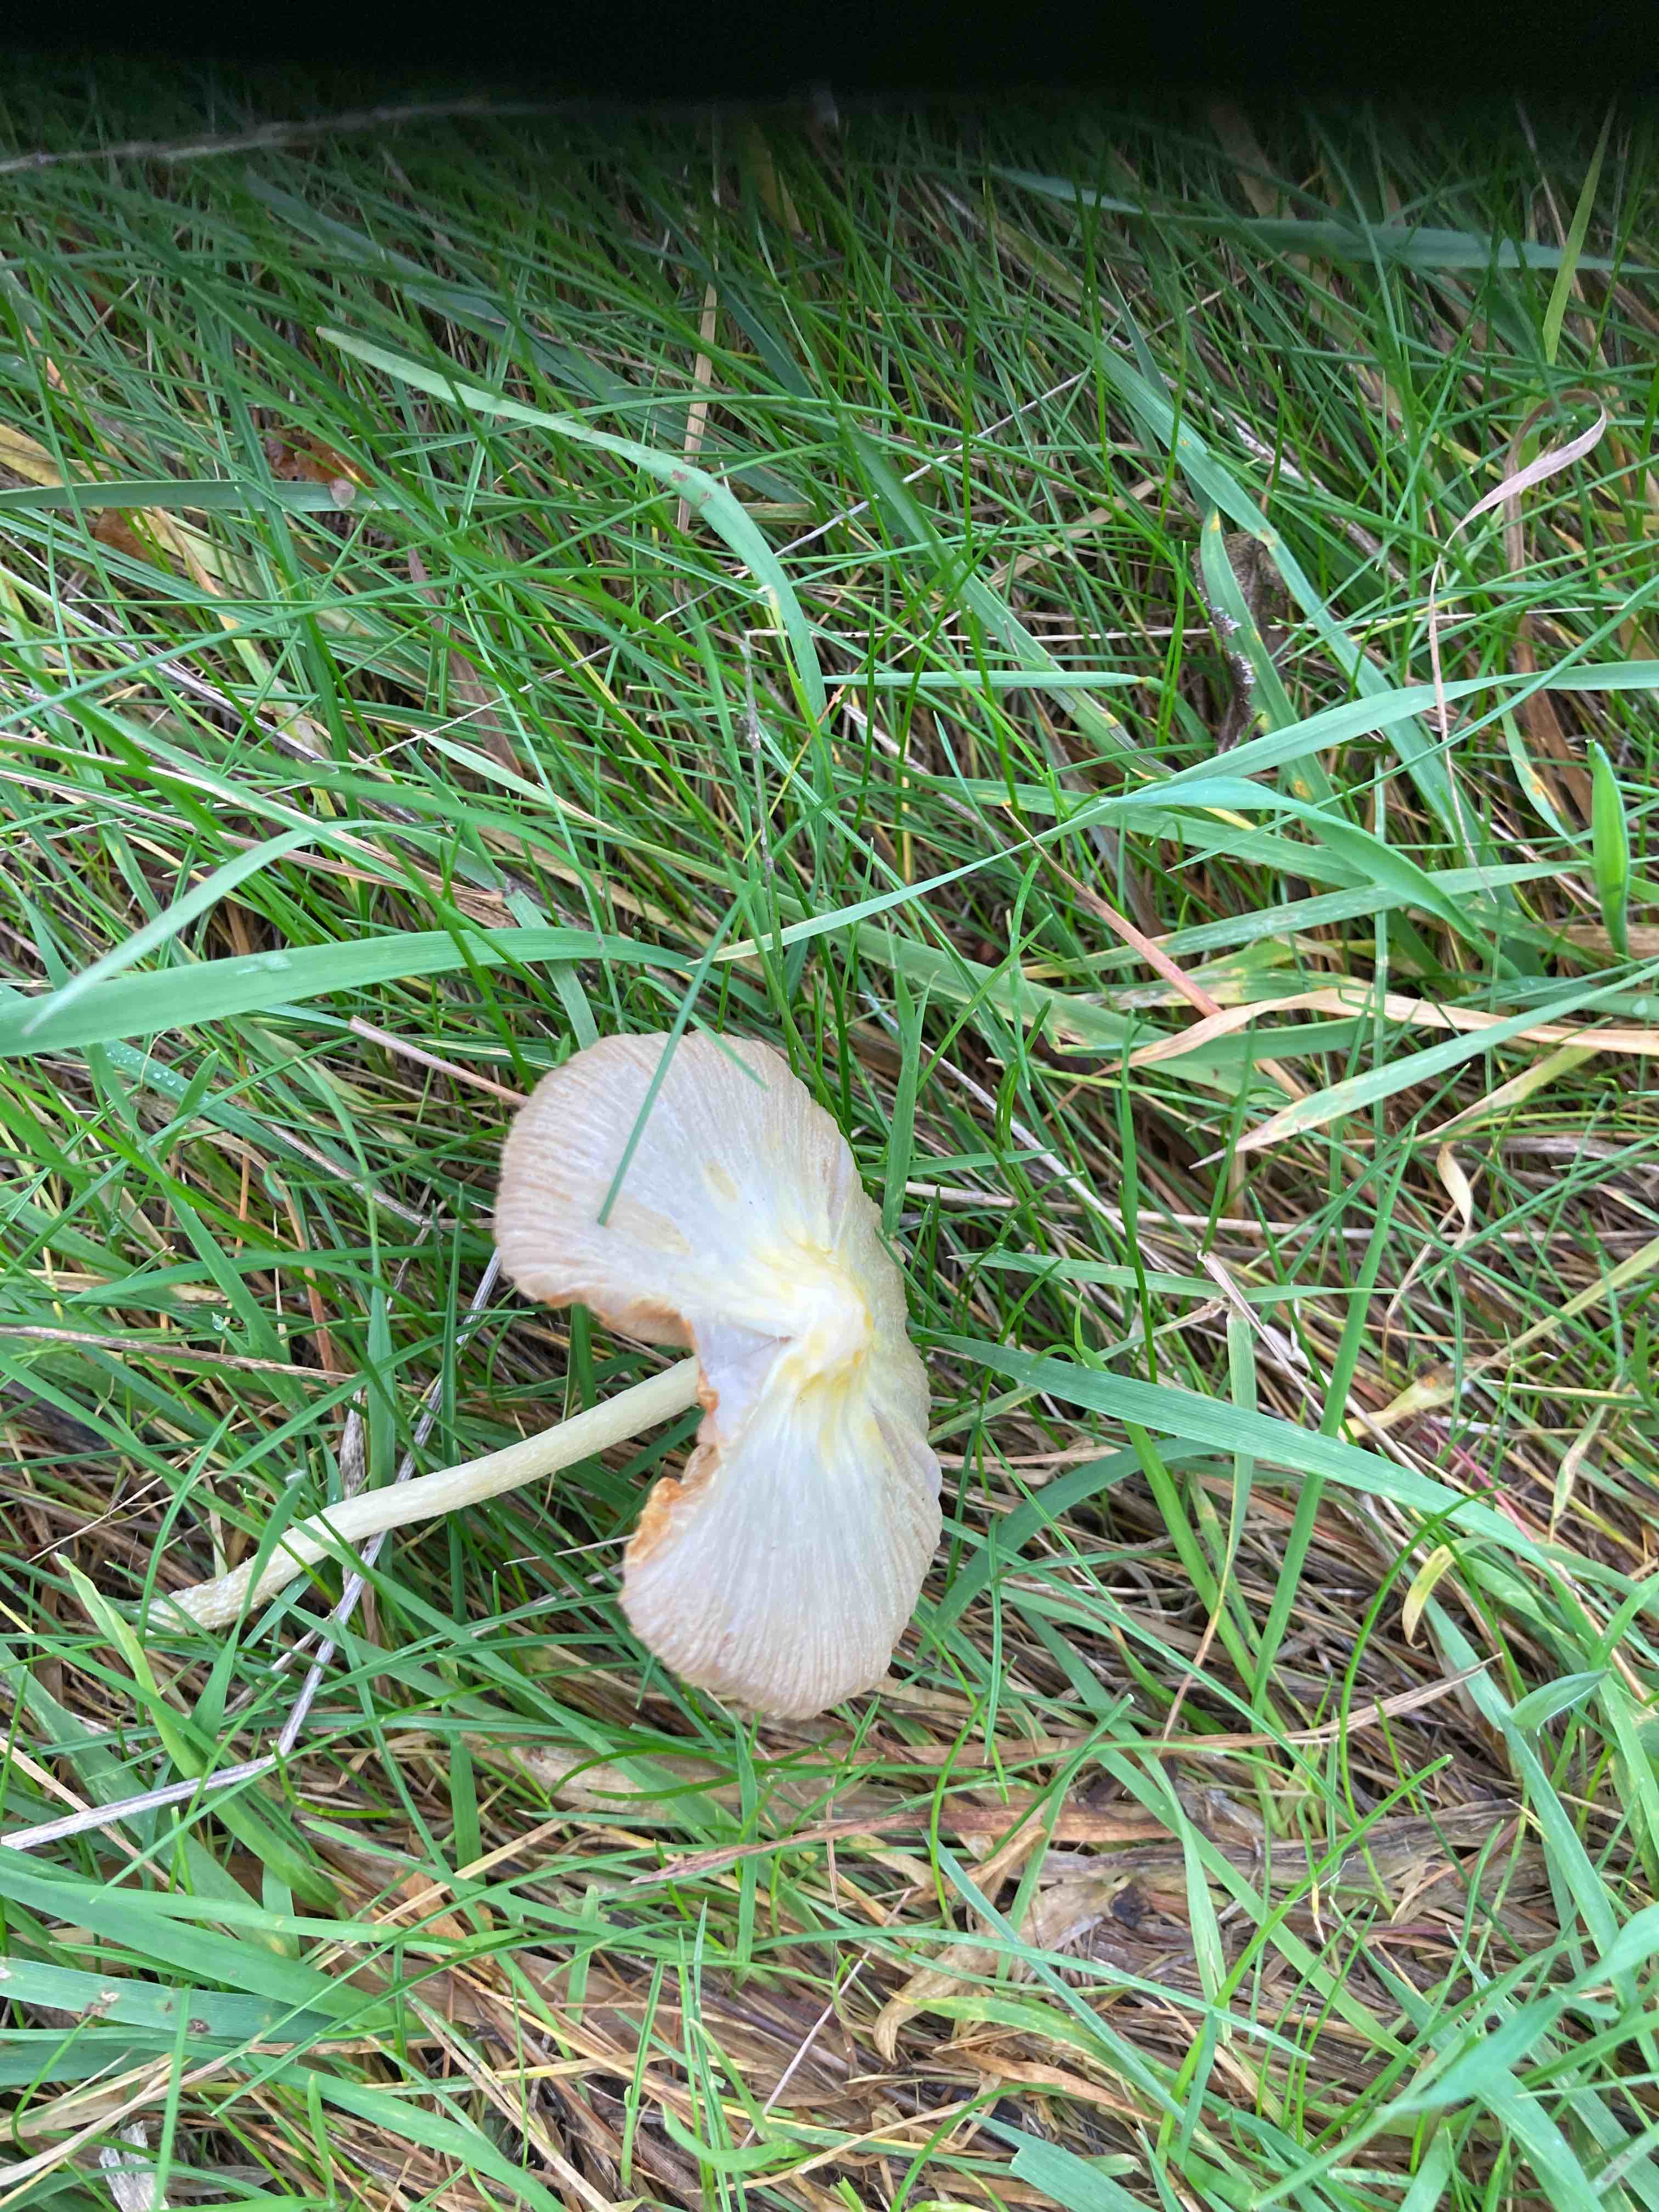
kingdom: Fungi
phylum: Basidiomycota
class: Agaricomycetes
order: Agaricales
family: Bolbitiaceae
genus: Bolbitius
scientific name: Bolbitius titubans
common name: almindelig gulhat
